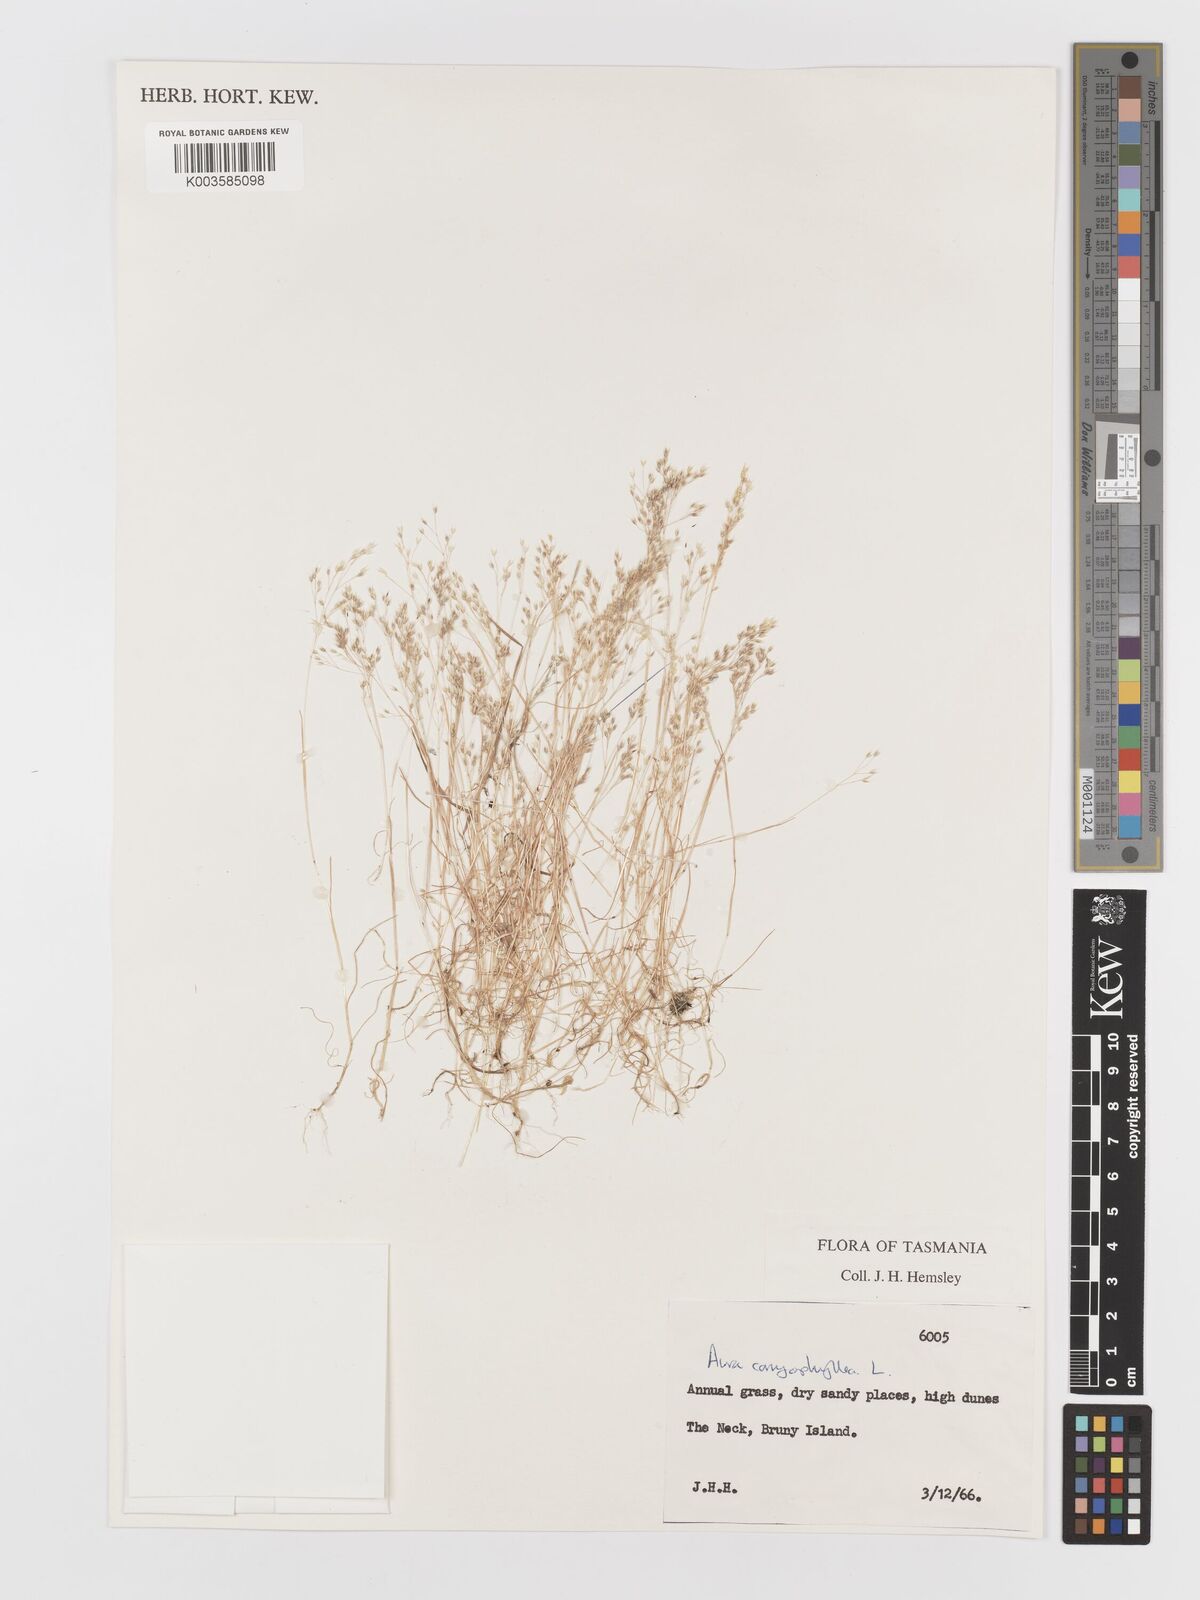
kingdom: Plantae
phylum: Tracheophyta
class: Liliopsida
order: Poales
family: Poaceae
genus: Aira
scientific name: Aira caryophyllea
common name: Silver hairgrass
